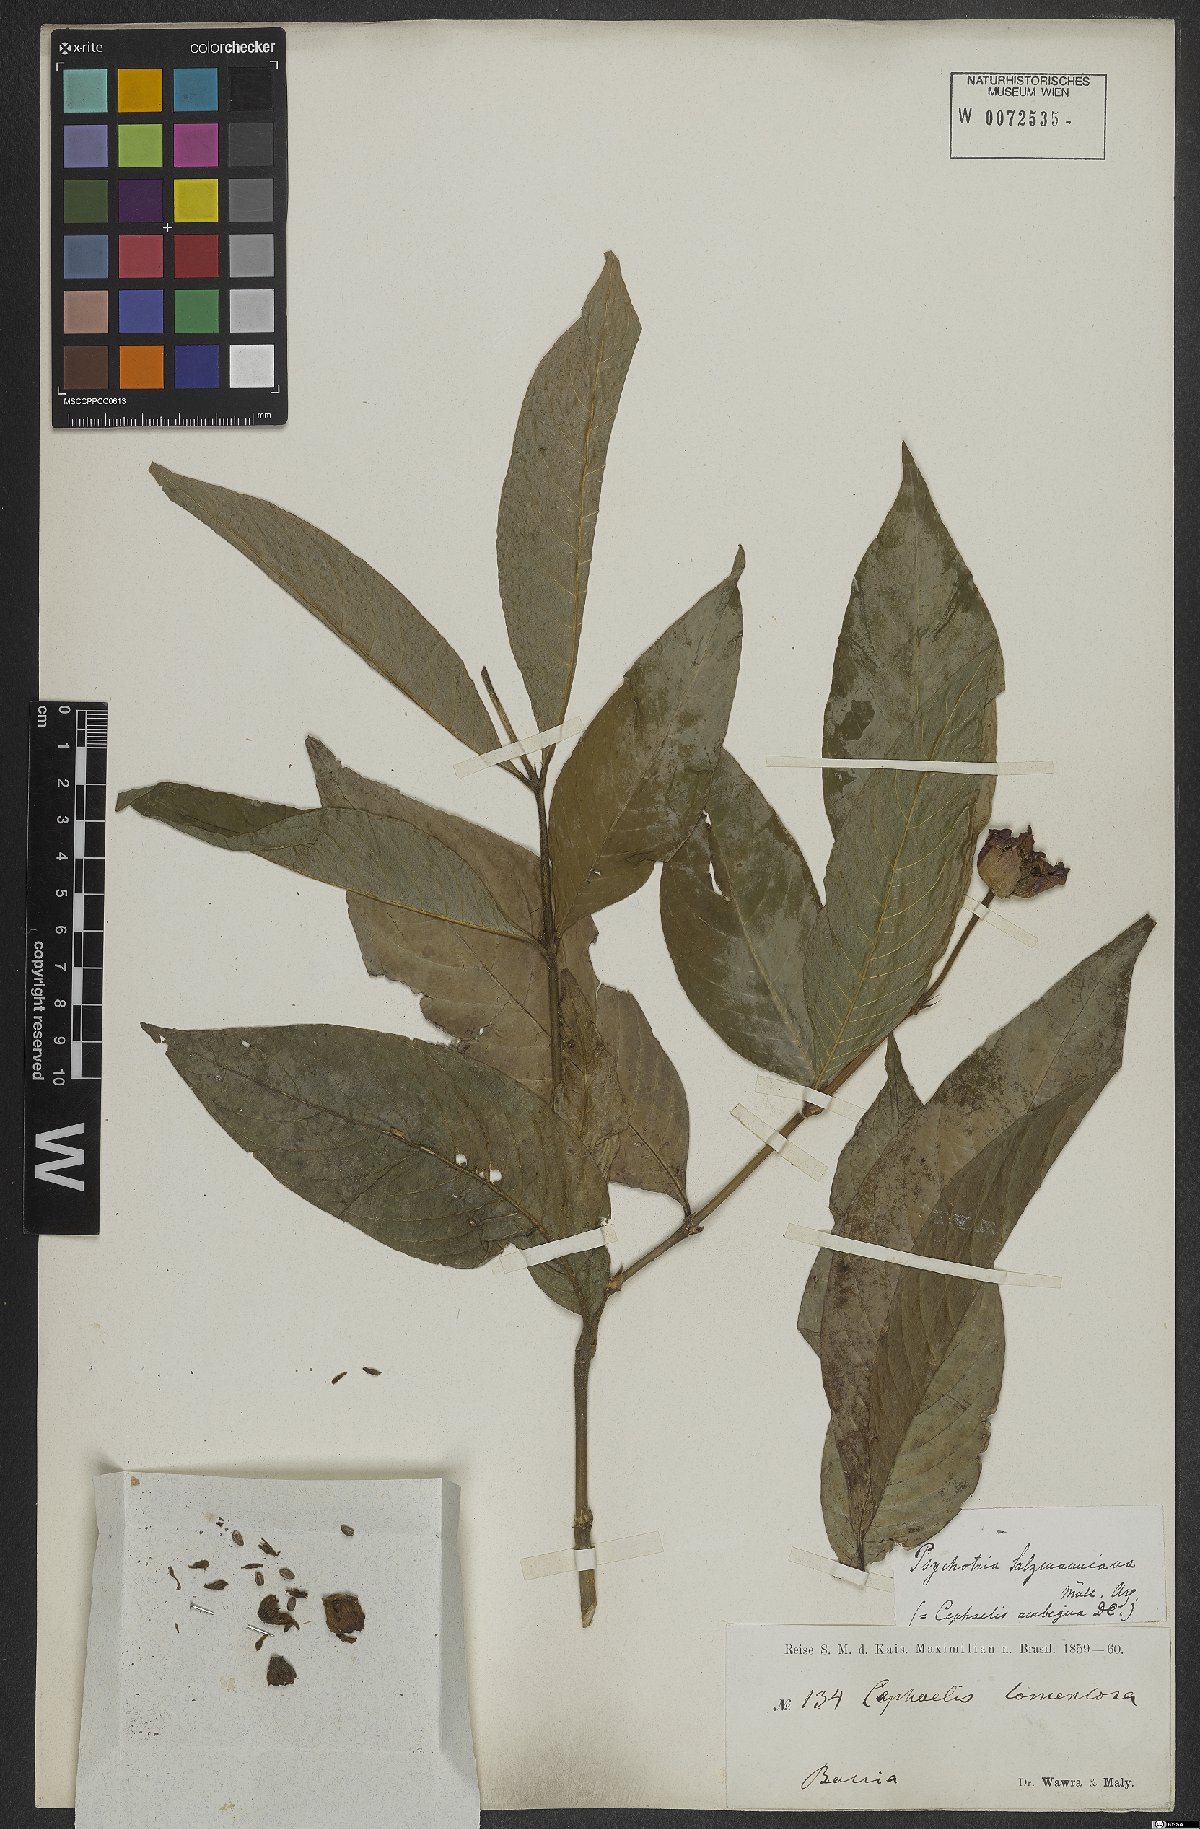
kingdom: Plantae
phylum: Tracheophyta
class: Magnoliopsida
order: Gentianales
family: Rubiaceae
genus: Psychotria
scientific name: Psychotria salzmanniana
